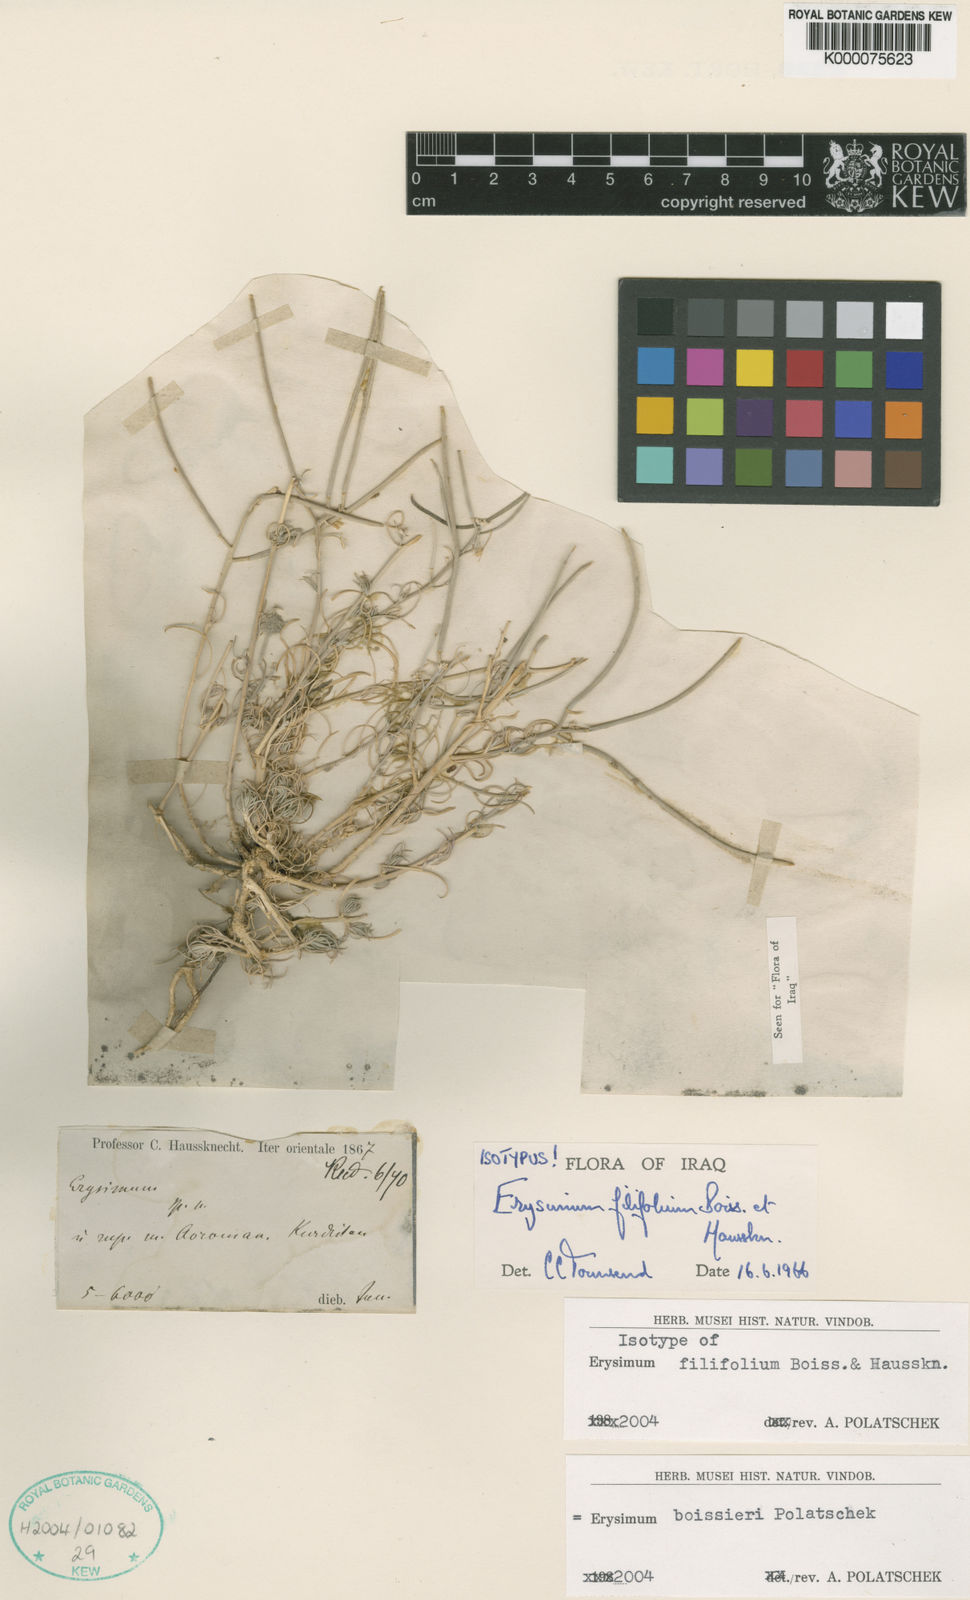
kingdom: Plantae
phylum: Tracheophyta
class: Magnoliopsida
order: Brassicales
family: Brassicaceae
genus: Erysimum
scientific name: Erysimum boissieri
